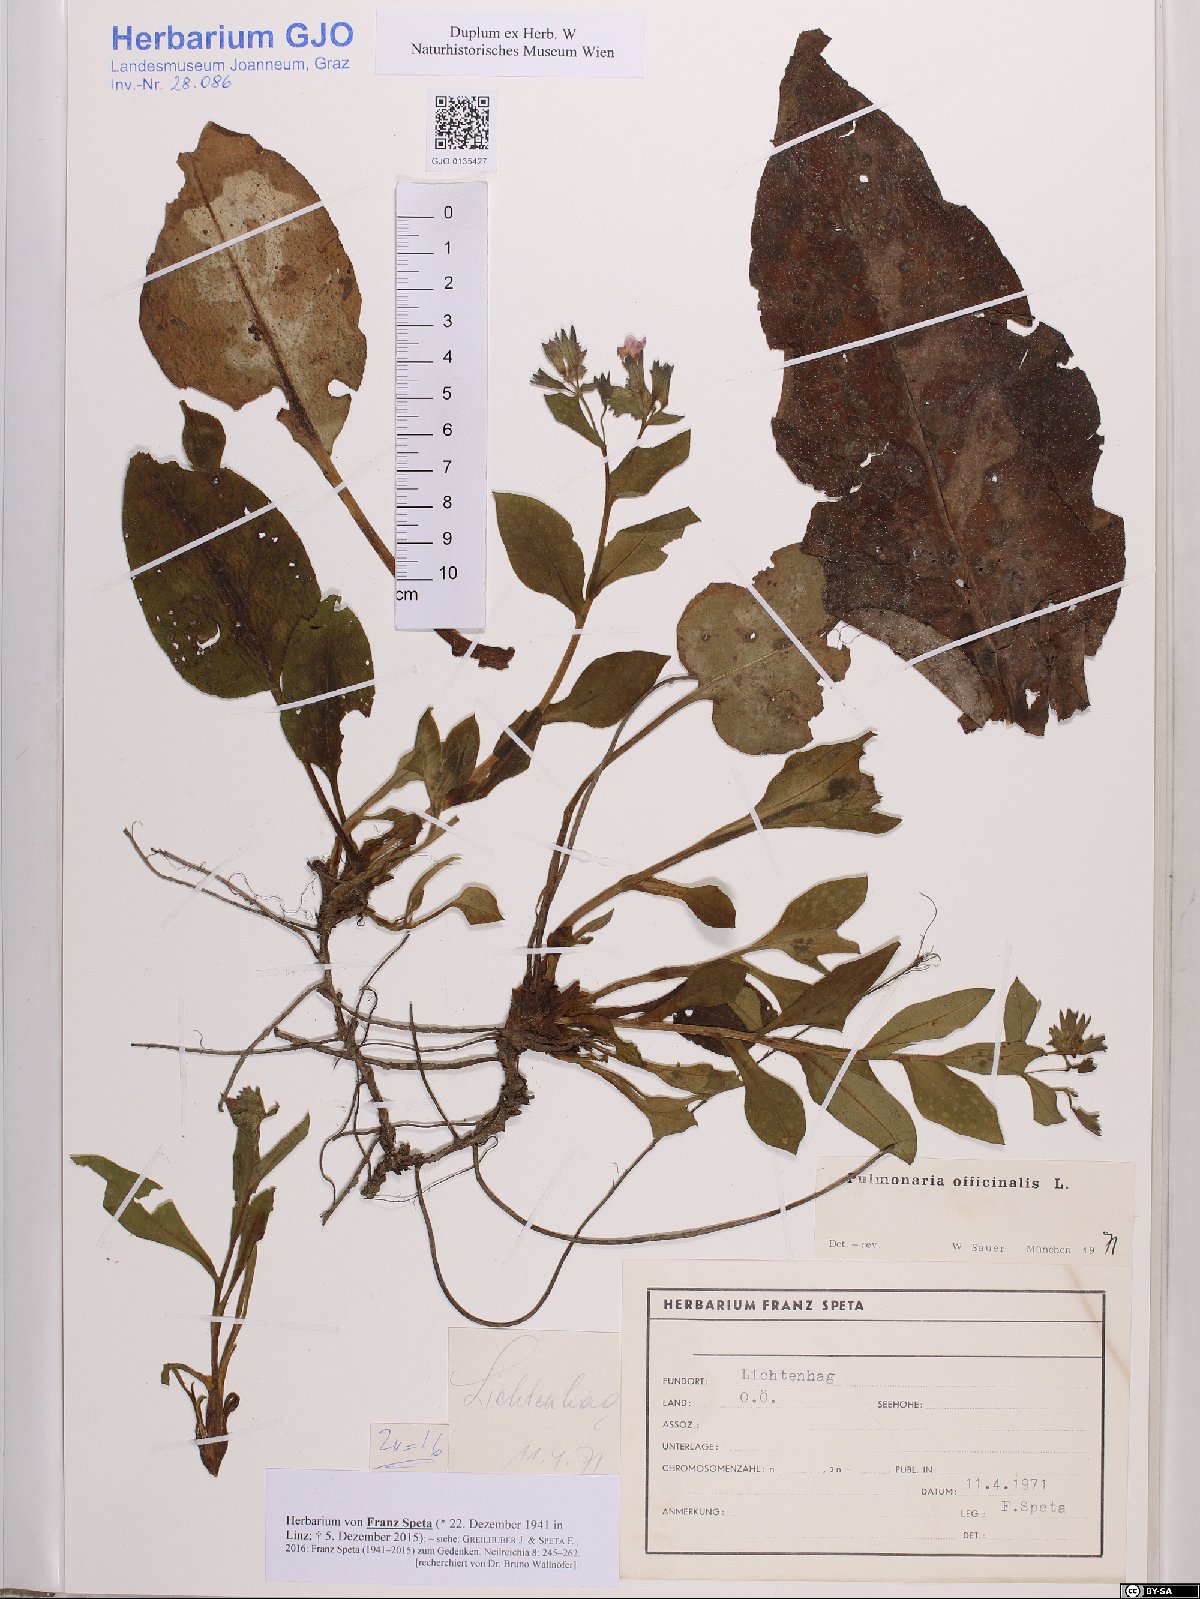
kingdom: Plantae
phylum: Tracheophyta
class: Magnoliopsida
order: Boraginales
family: Boraginaceae
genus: Pulmonaria
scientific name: Pulmonaria officinalis
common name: Lungwort
